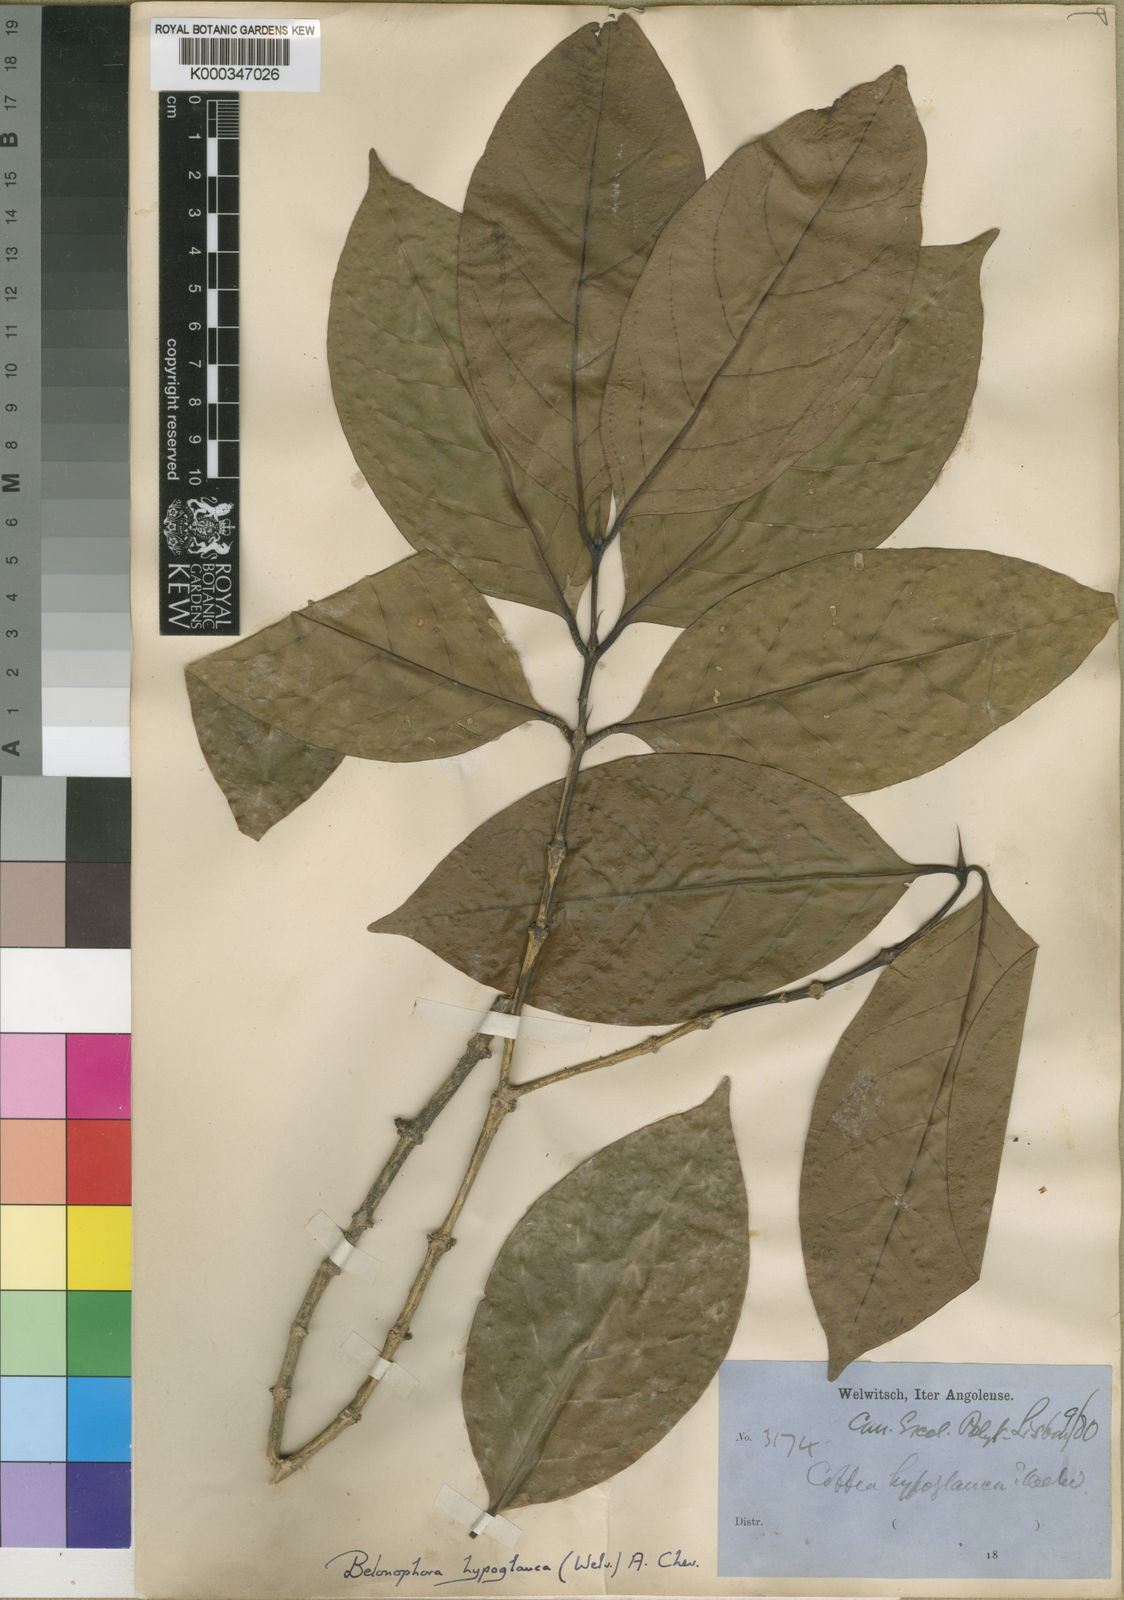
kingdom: Plantae
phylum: Tracheophyta
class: Magnoliopsida
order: Gentianales
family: Rubiaceae
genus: Belonophora
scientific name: Belonophora coffeoides
